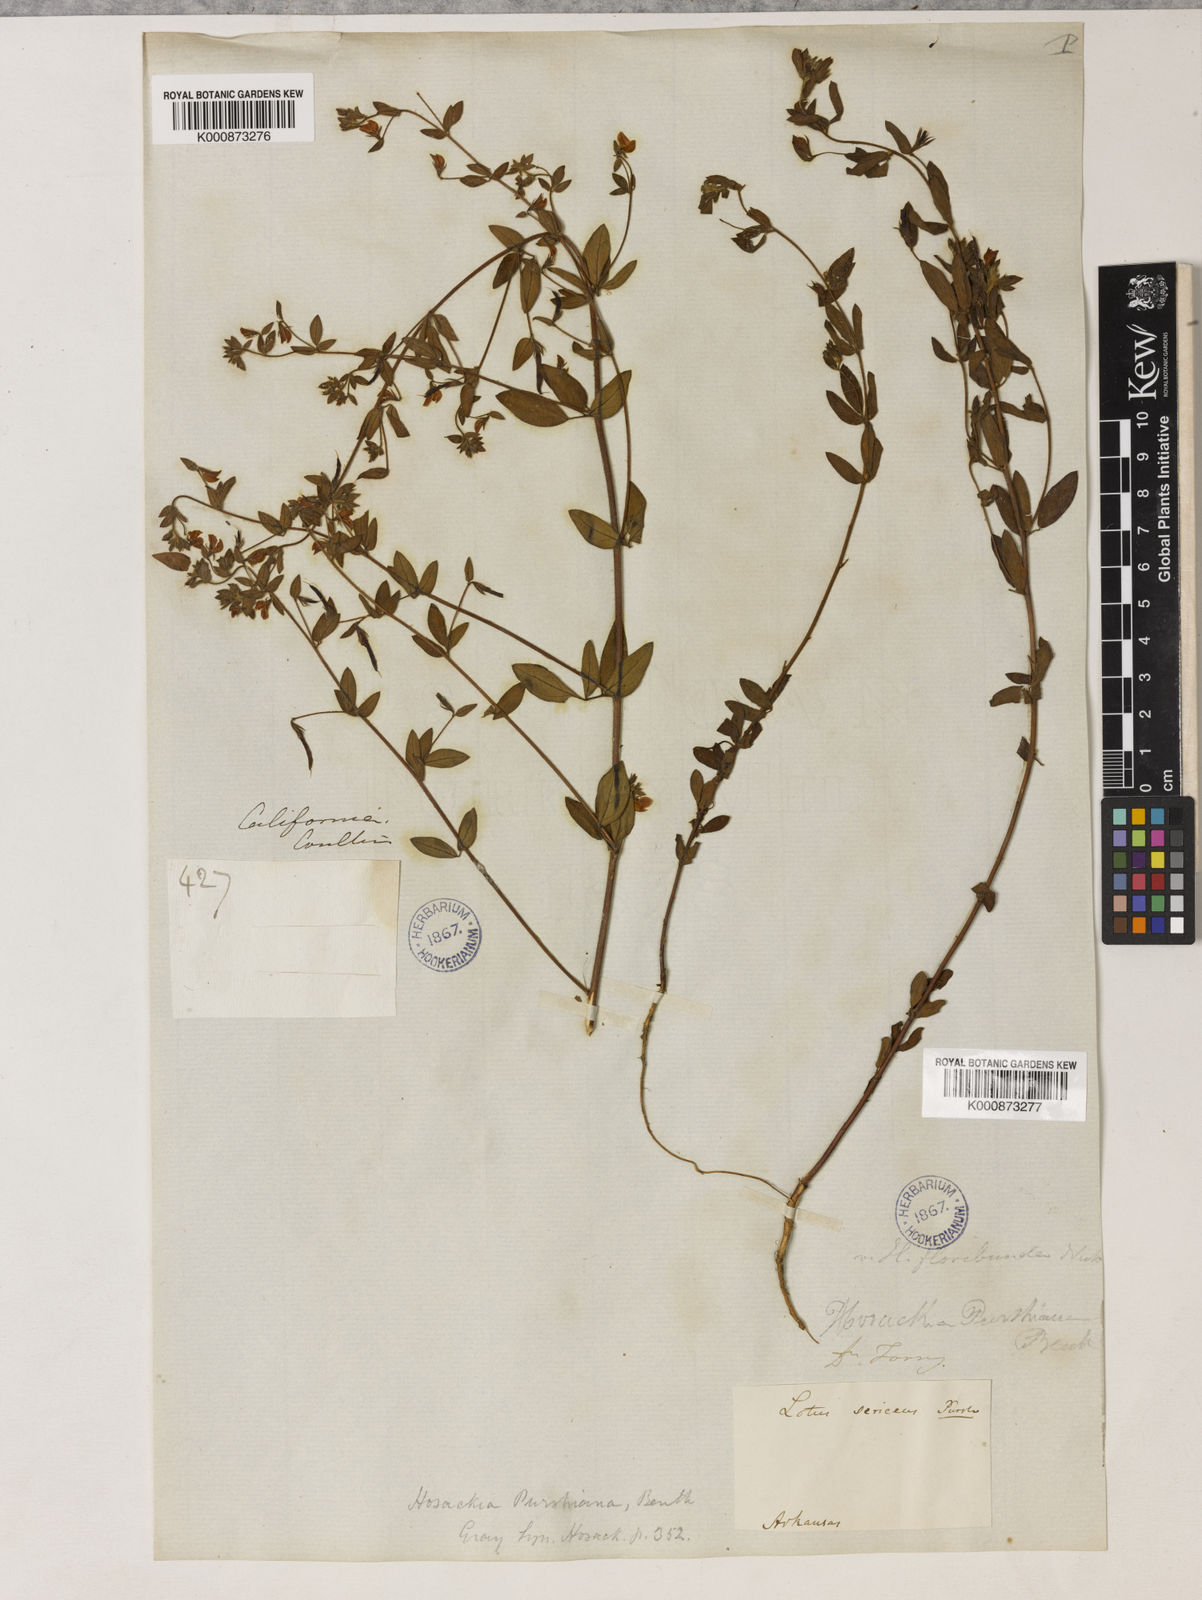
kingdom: Plantae
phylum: Tracheophyta
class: Magnoliopsida
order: Fabales
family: Fabaceae
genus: Collaea
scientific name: Collaea speciosa
